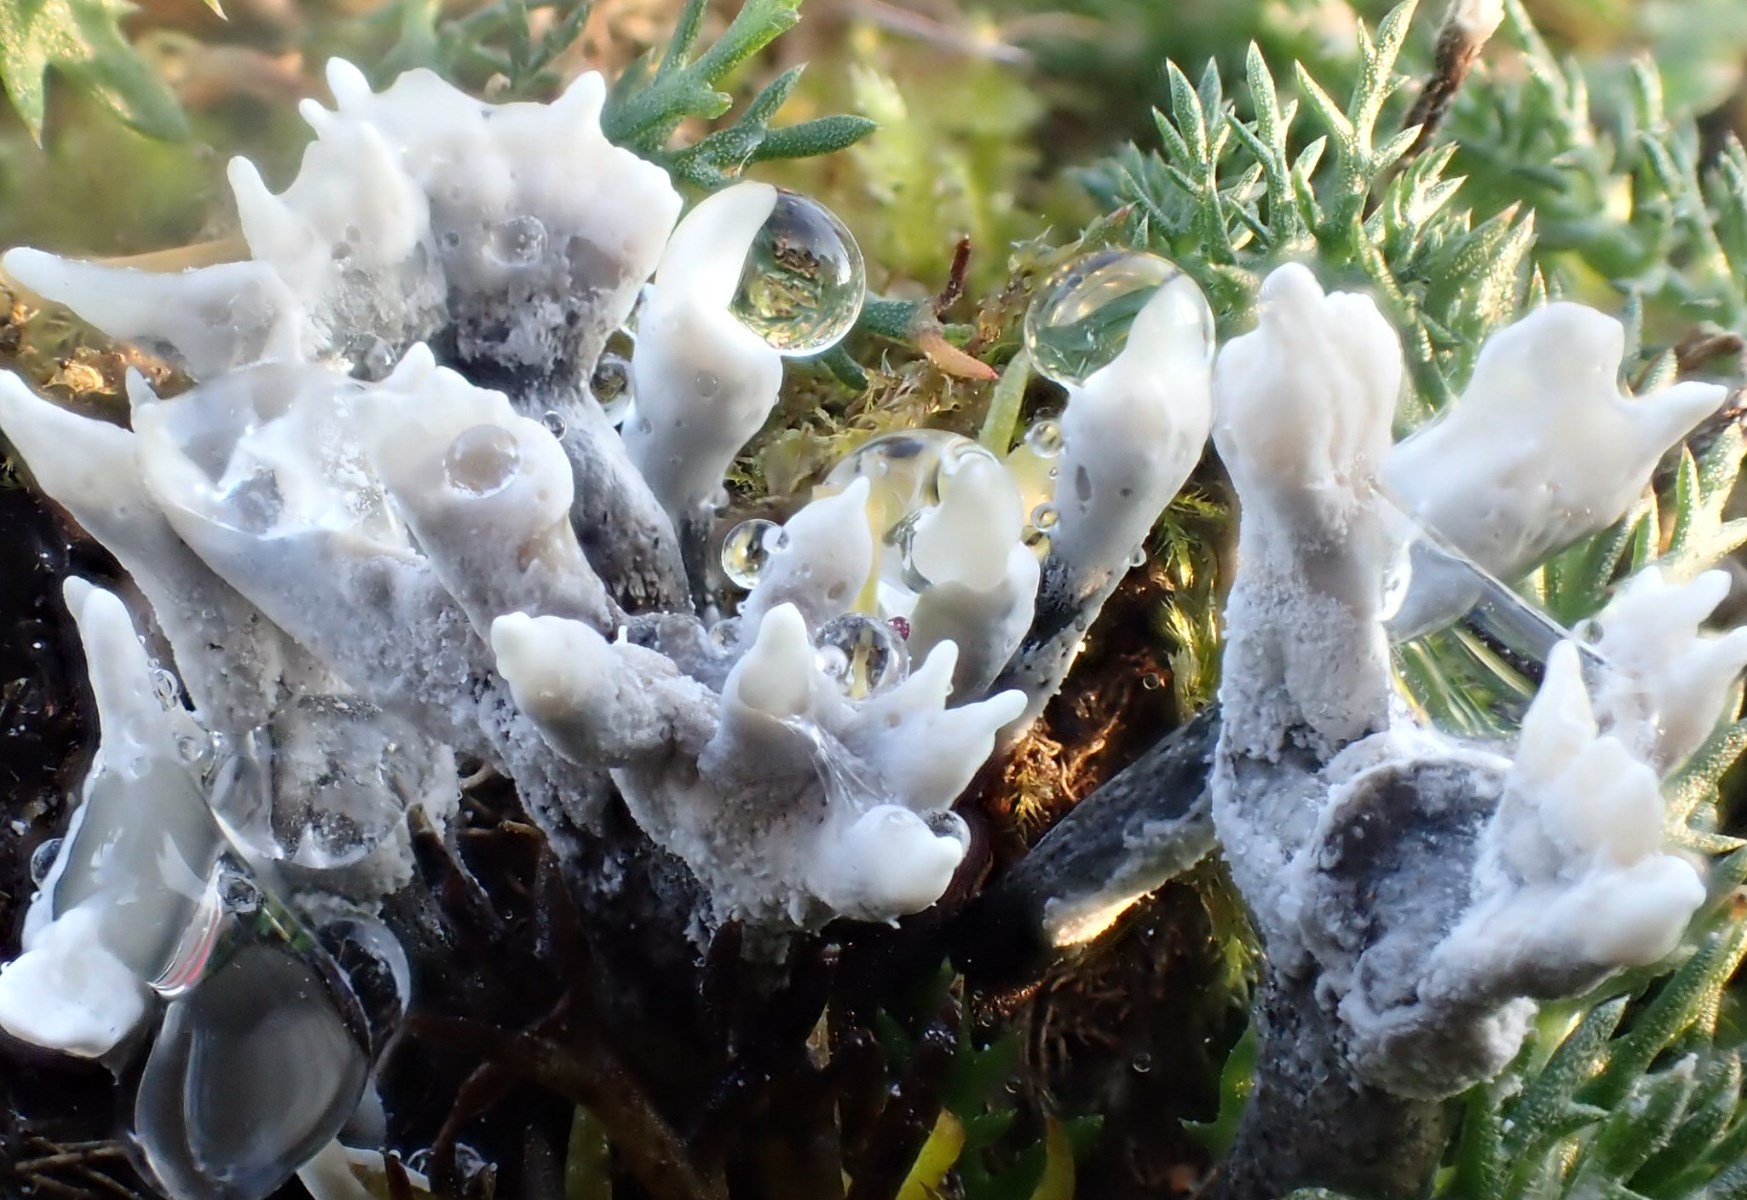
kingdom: Fungi
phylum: Ascomycota
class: Sordariomycetes
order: Xylariales
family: Xylariaceae
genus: Xylaria
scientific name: Xylaria hypoxylon
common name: grenet stødsvamp
